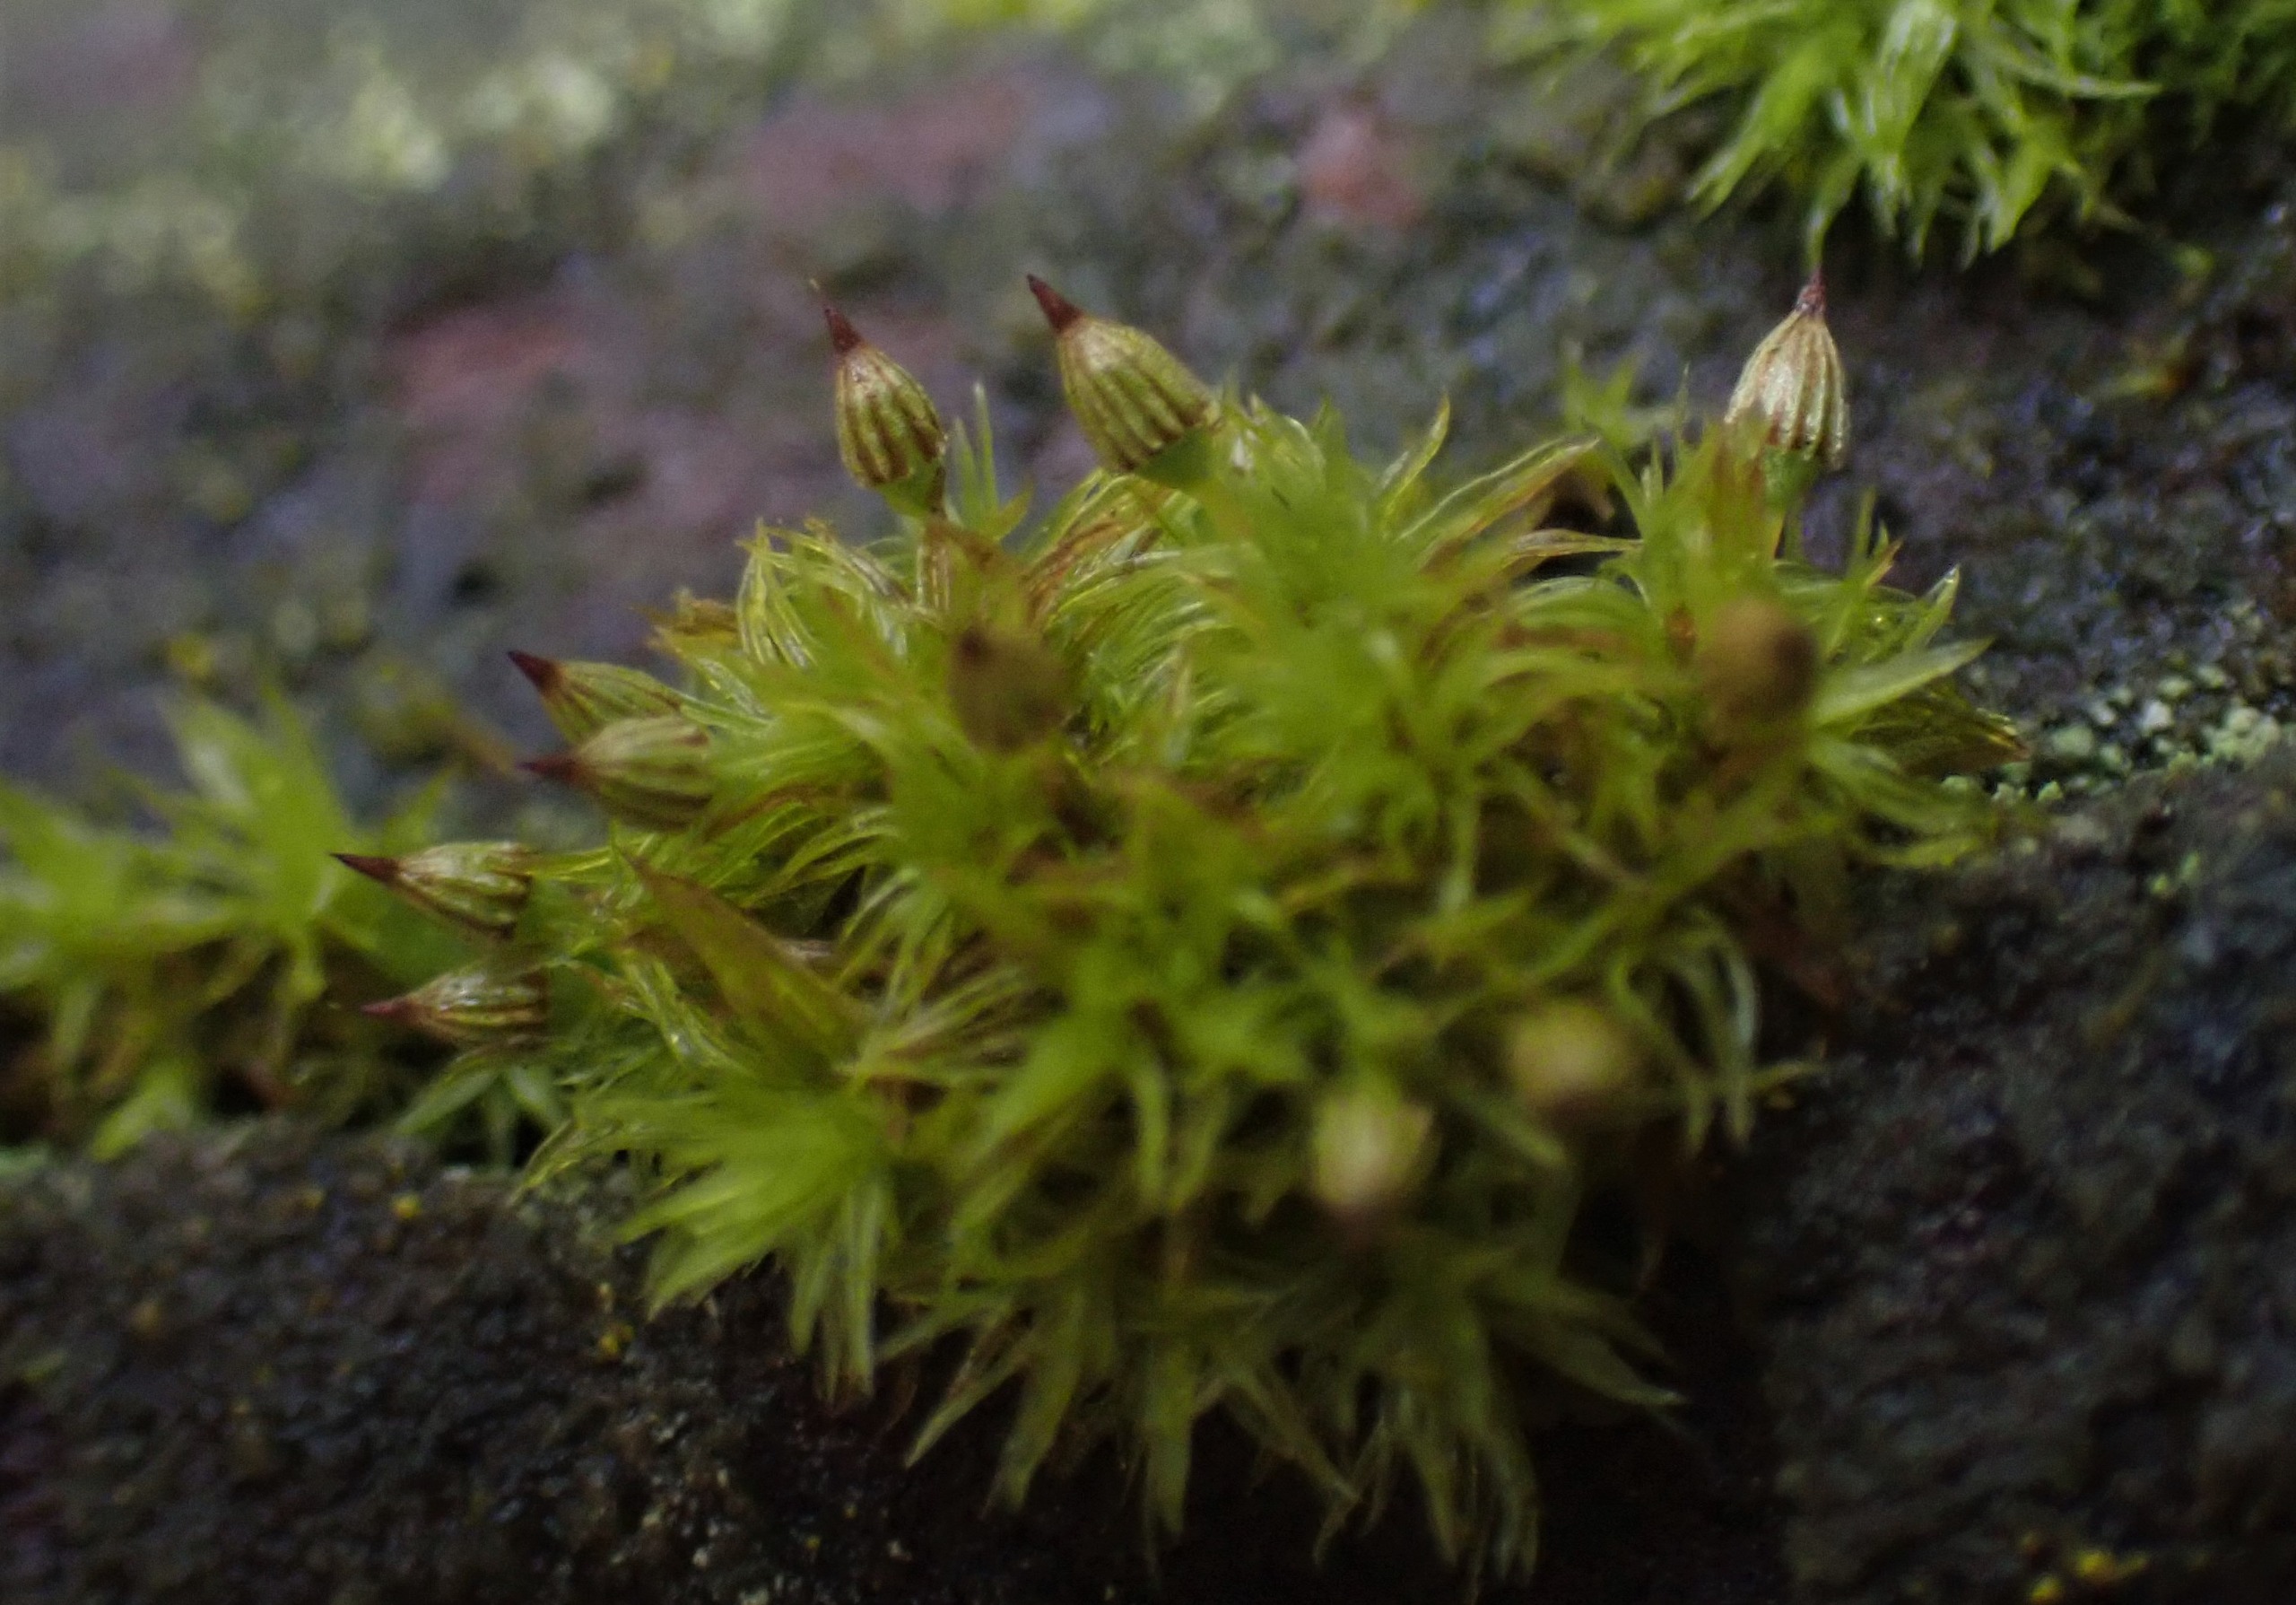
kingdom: Plantae
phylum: Bryophyta
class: Bryopsida
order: Orthotrichales
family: Orthotrichaceae
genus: Orthotrichum
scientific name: Orthotrichum pulchellum
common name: Smuk furehætte
